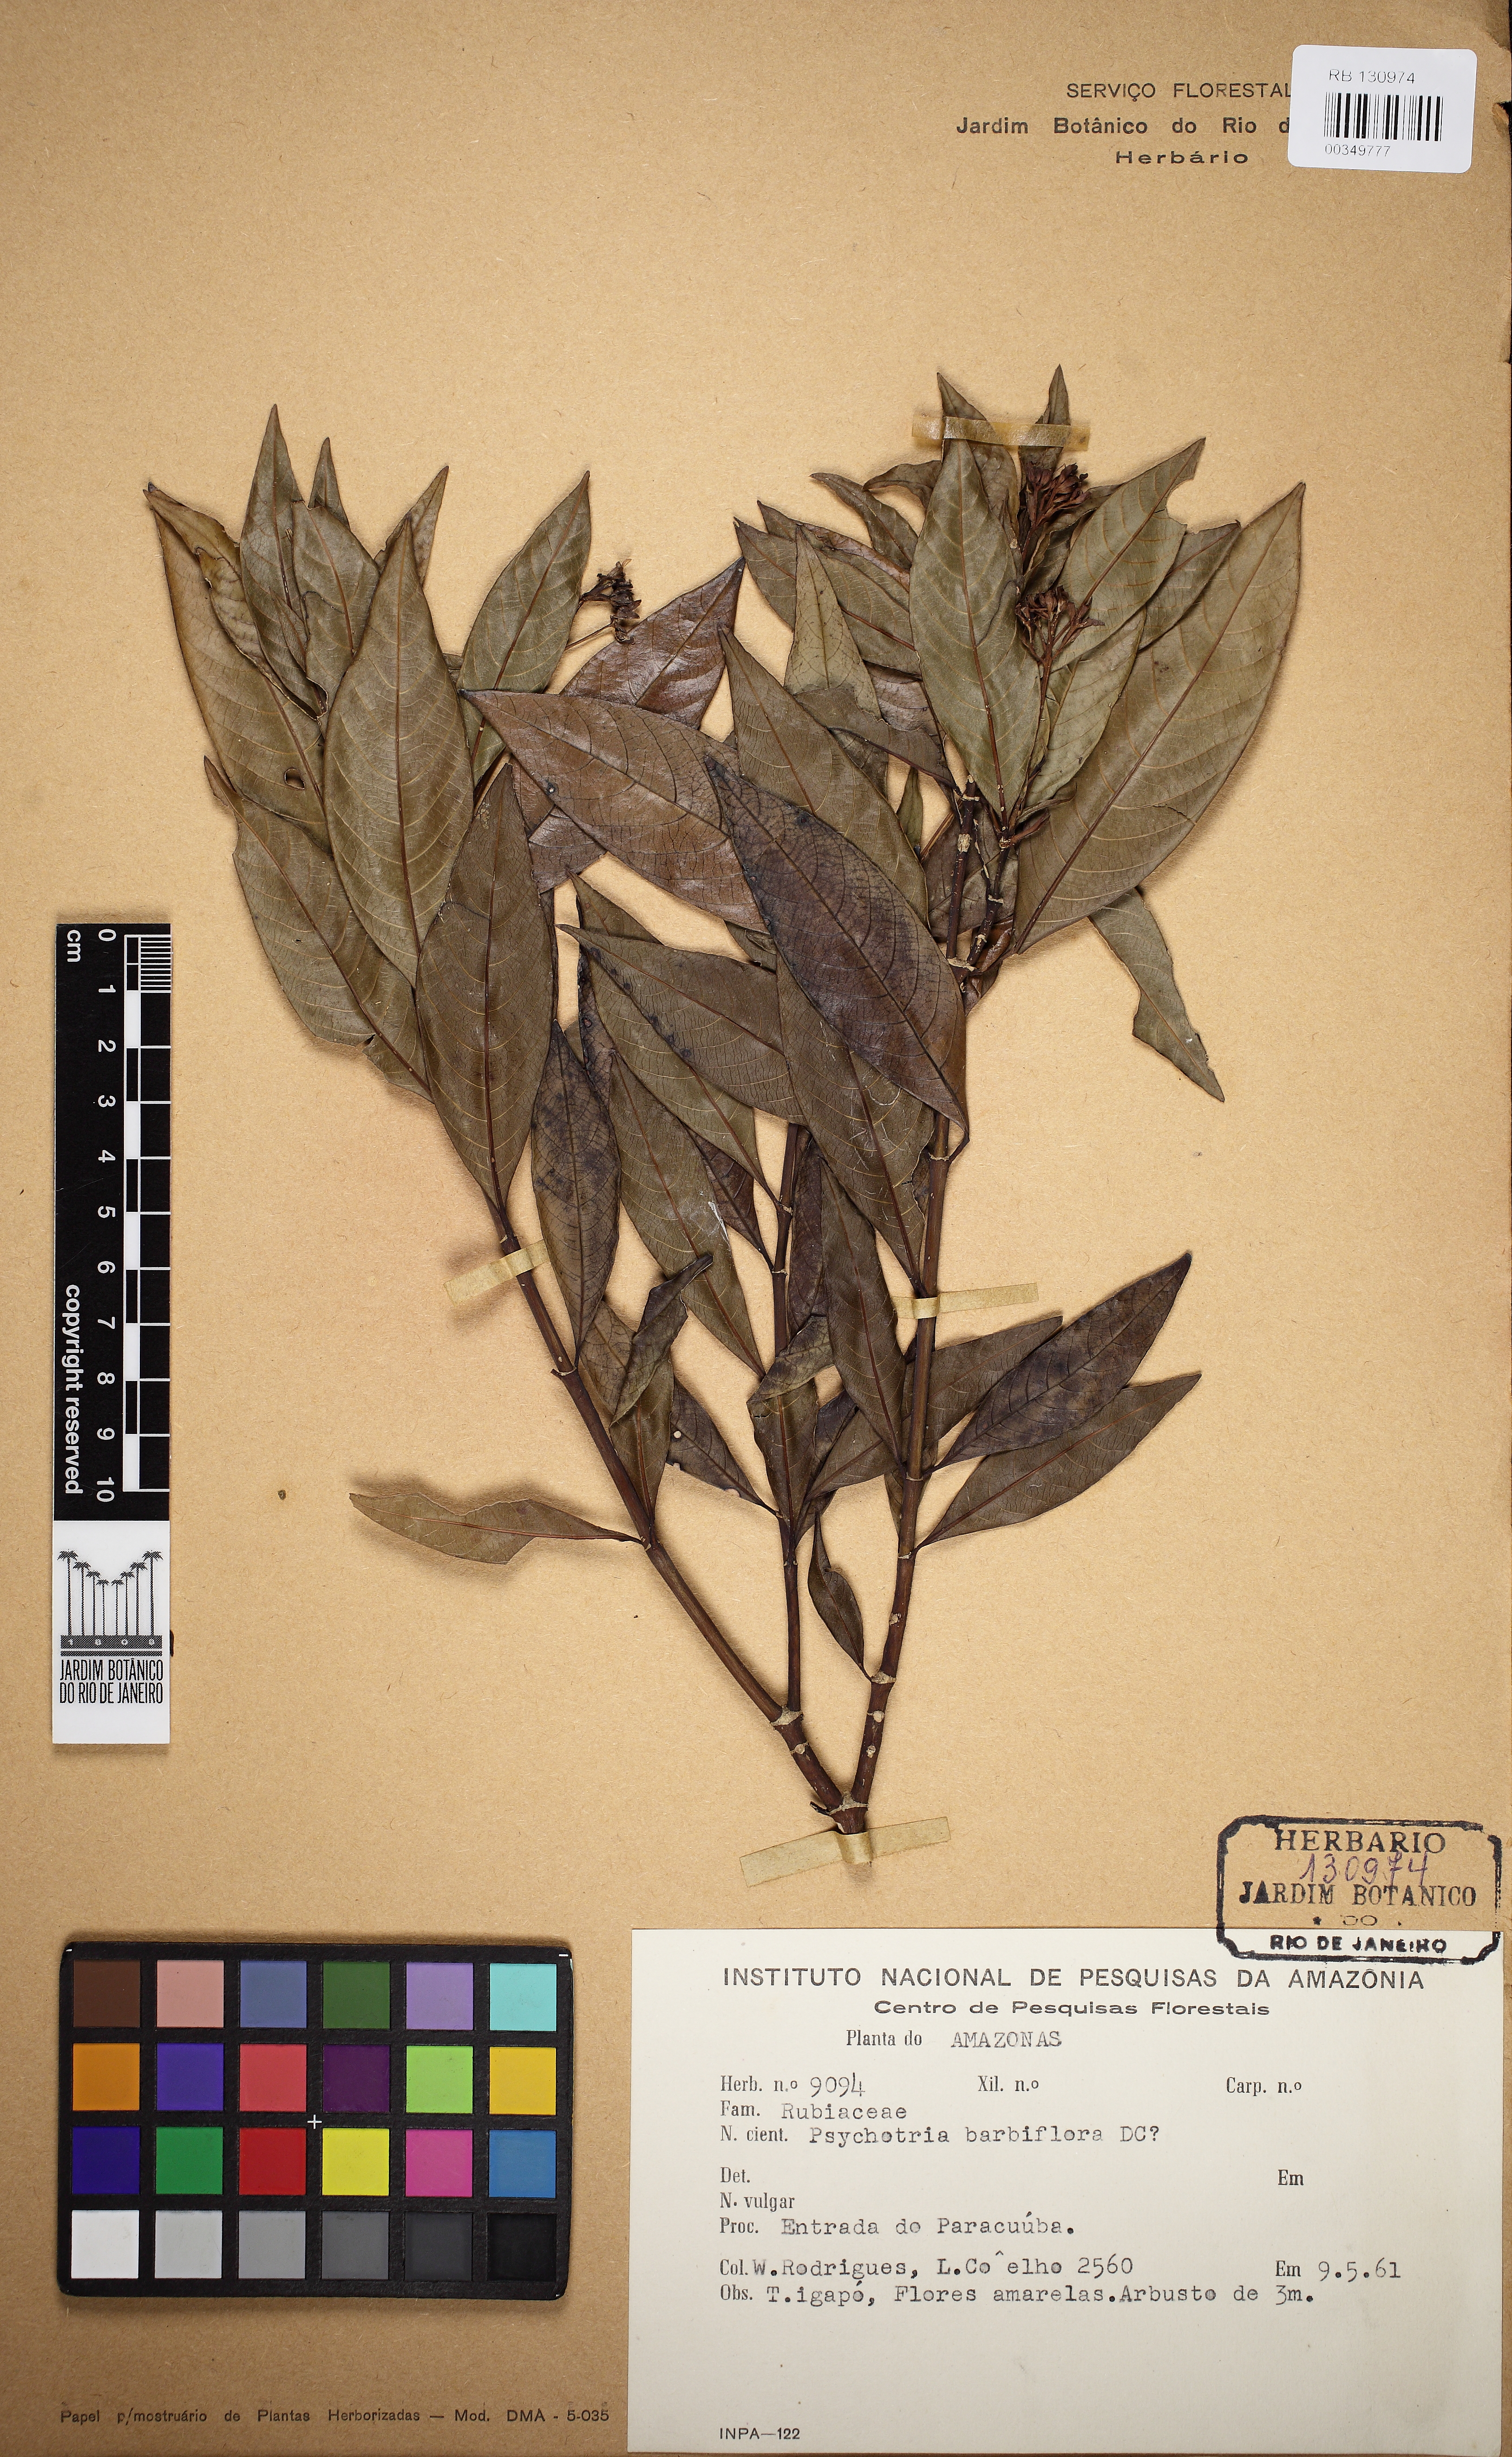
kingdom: Plantae
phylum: Tracheophyta
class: Magnoliopsida
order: Gentianales
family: Rubiaceae
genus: Palicourea
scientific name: Palicourea hoffmannseggiana
